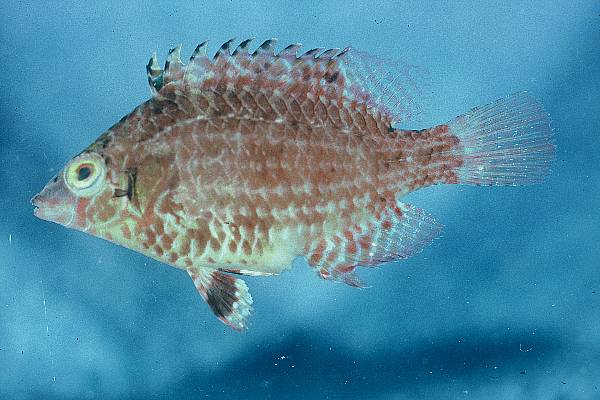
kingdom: Animalia
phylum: Chordata
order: Perciformes
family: Labridae
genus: Pteragogus
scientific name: Pteragogus cryptus
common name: Cryptic wrasse
